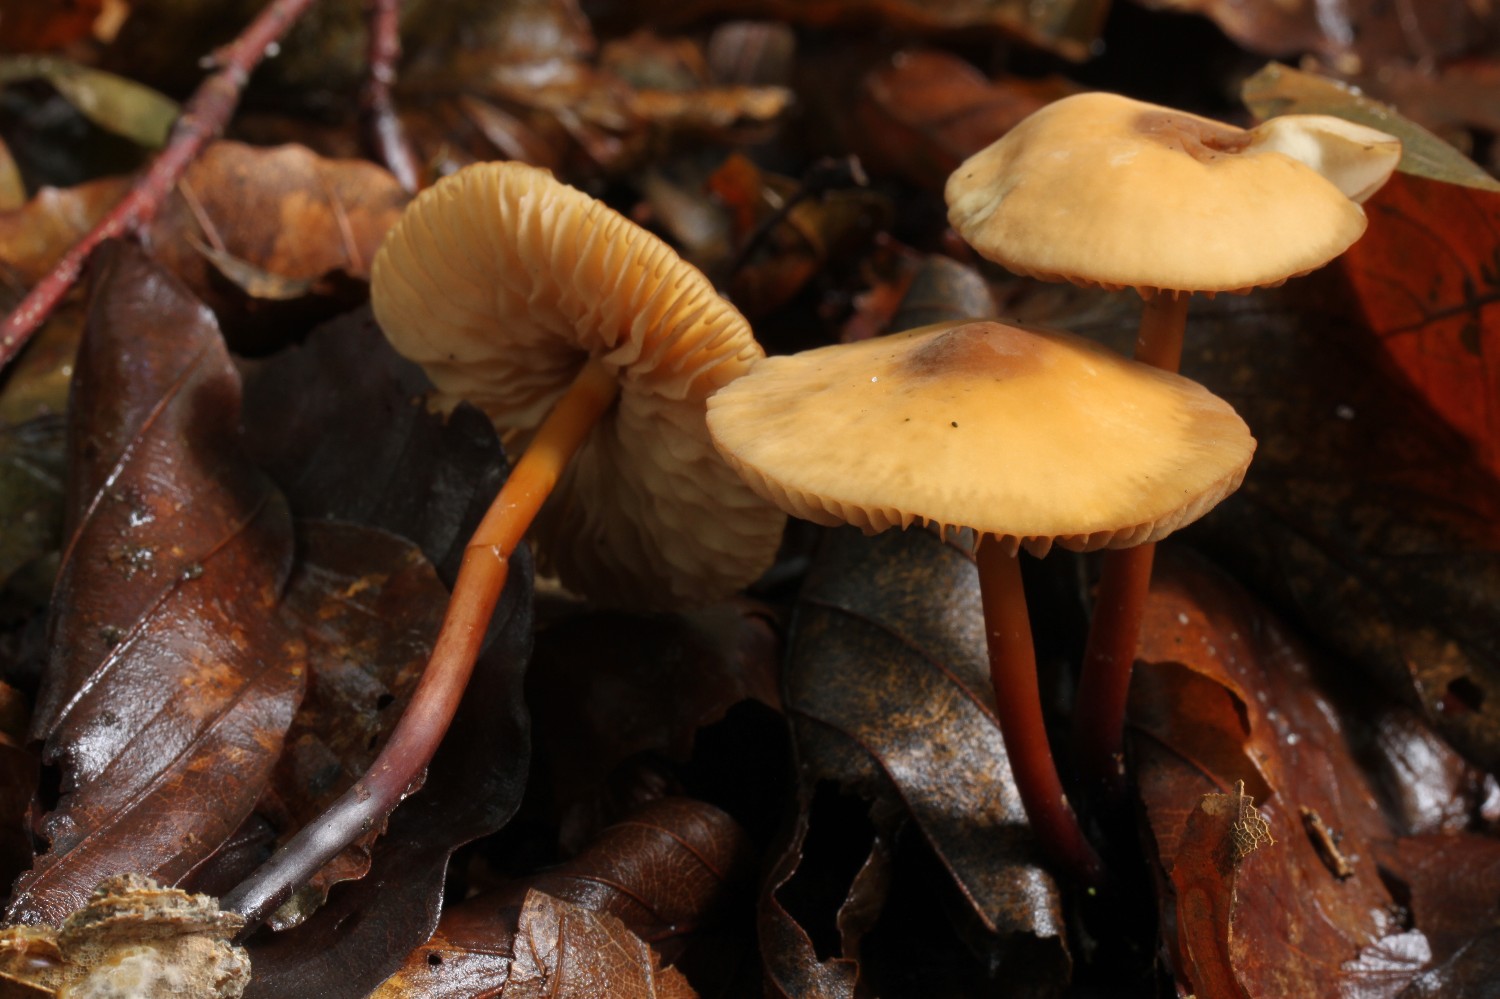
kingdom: Fungi
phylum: Basidiomycota
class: Agaricomycetes
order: Agaricales
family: Marasmiaceae
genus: Marasmius
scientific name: Marasmius cohaerens
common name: hornstokket bruskhat
